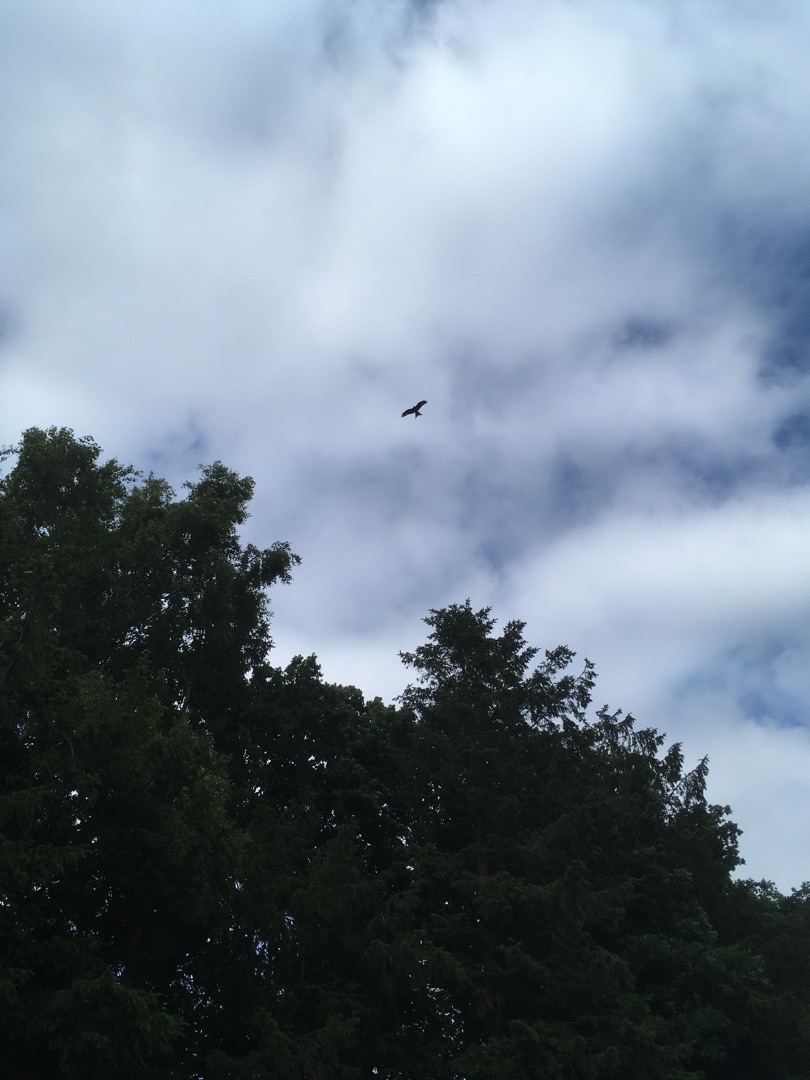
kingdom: Animalia
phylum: Chordata
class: Aves
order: Accipitriformes
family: Accipitridae
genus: Milvus
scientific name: Milvus milvus
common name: Rød glente
